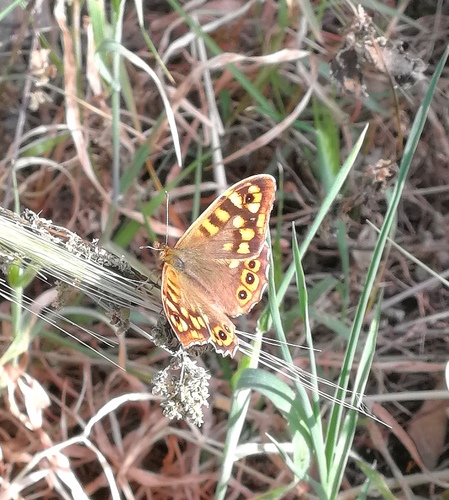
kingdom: Animalia
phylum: Arthropoda
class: Insecta
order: Lepidoptera
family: Nymphalidae
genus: Pararge
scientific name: Pararge aegeria
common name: Speckled wood
